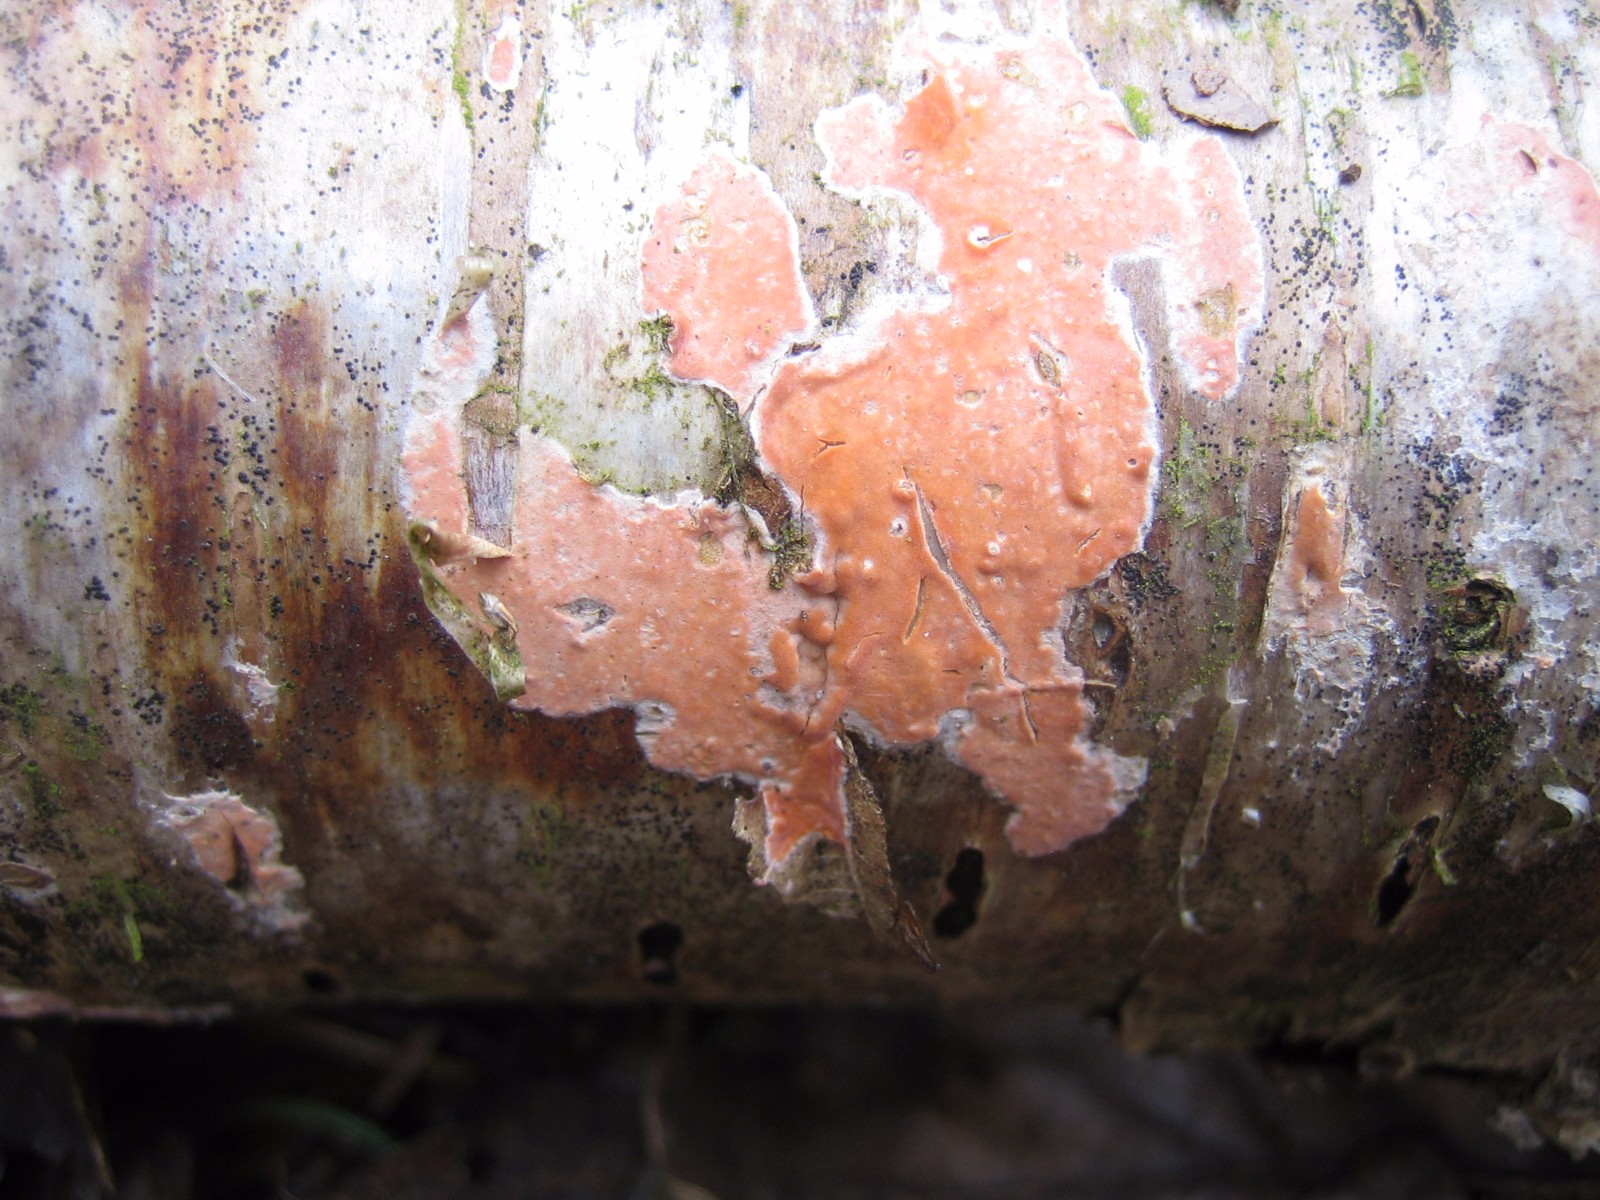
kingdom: Fungi
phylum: Basidiomycota
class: Agaricomycetes
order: Russulales
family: Peniophoraceae
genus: Peniophora
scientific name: Peniophora incarnata
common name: laksefarvet voksskind
